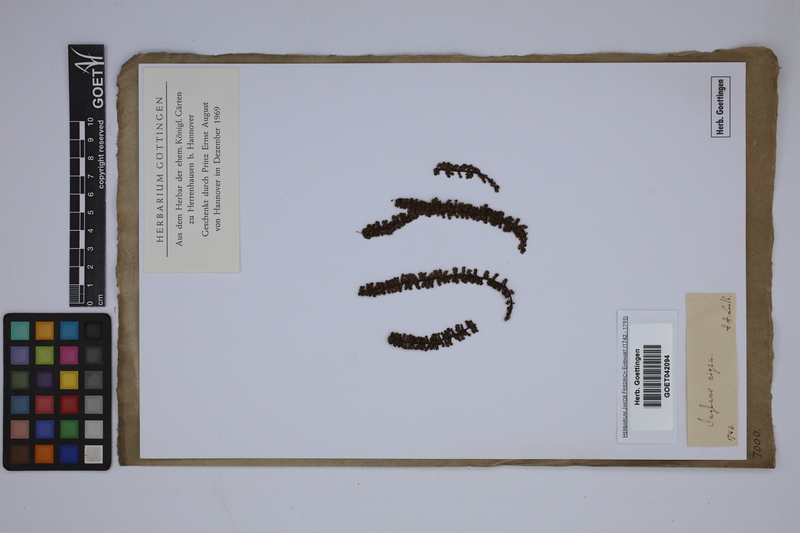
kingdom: Plantae
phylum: Tracheophyta
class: Magnoliopsida
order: Fagales
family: Juglandaceae
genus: Juglans
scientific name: Juglans nigra
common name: Black walnut
